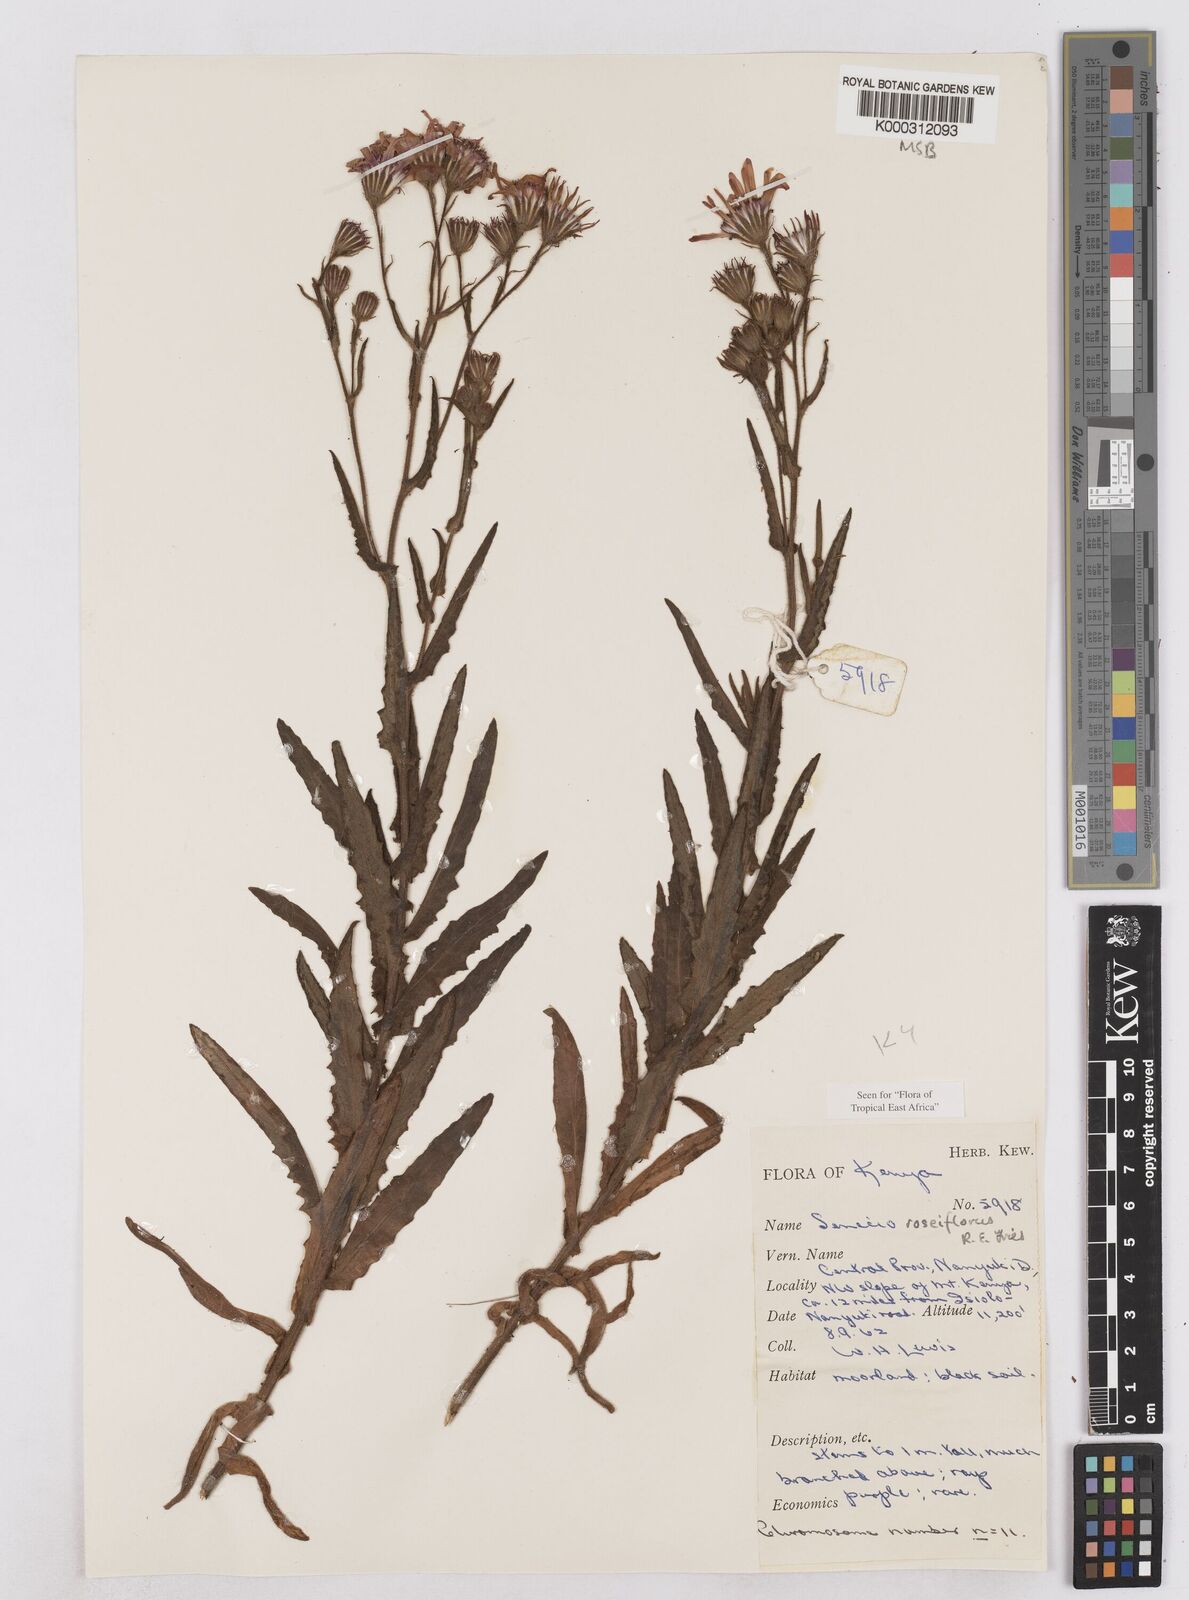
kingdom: Plantae
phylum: Tracheophyta
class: Magnoliopsida
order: Asterales
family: Asteraceae
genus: Senecio
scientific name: Senecio roseiflorus
